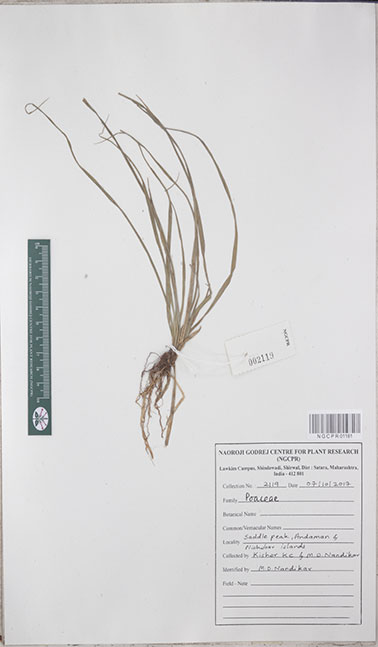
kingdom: Plantae
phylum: Tracheophyta
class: Liliopsida
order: Poales
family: Poaceae
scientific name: Poaceae
